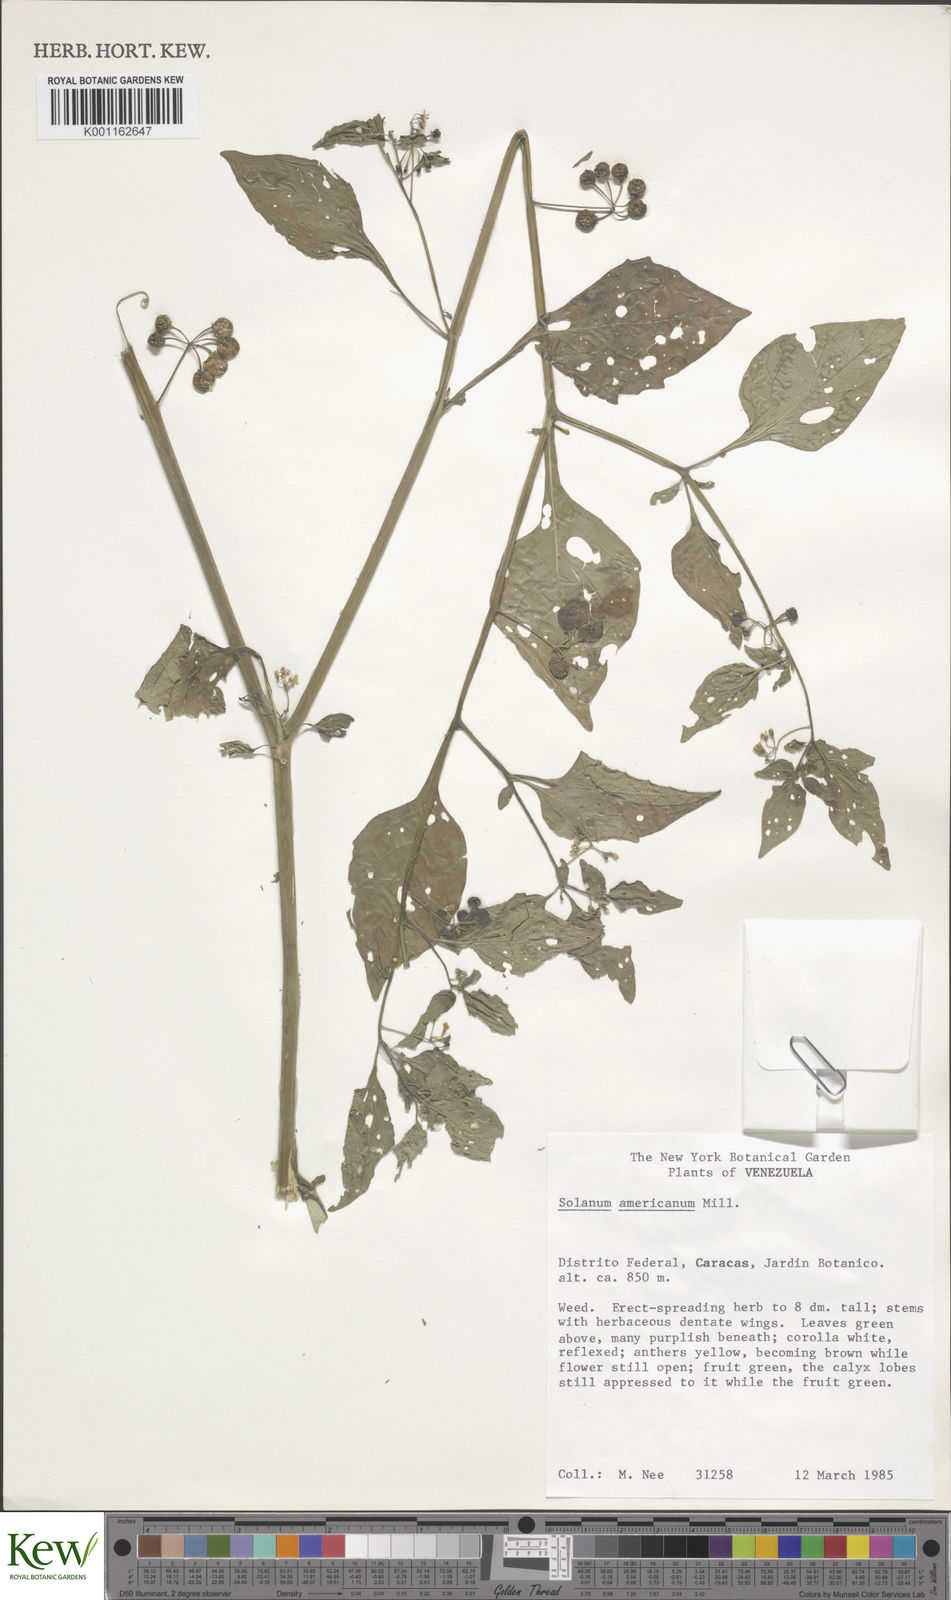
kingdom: Plantae
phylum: Tracheophyta
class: Magnoliopsida
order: Solanales
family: Solanaceae
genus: Solanum
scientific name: Solanum americanum
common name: American black nightshade
